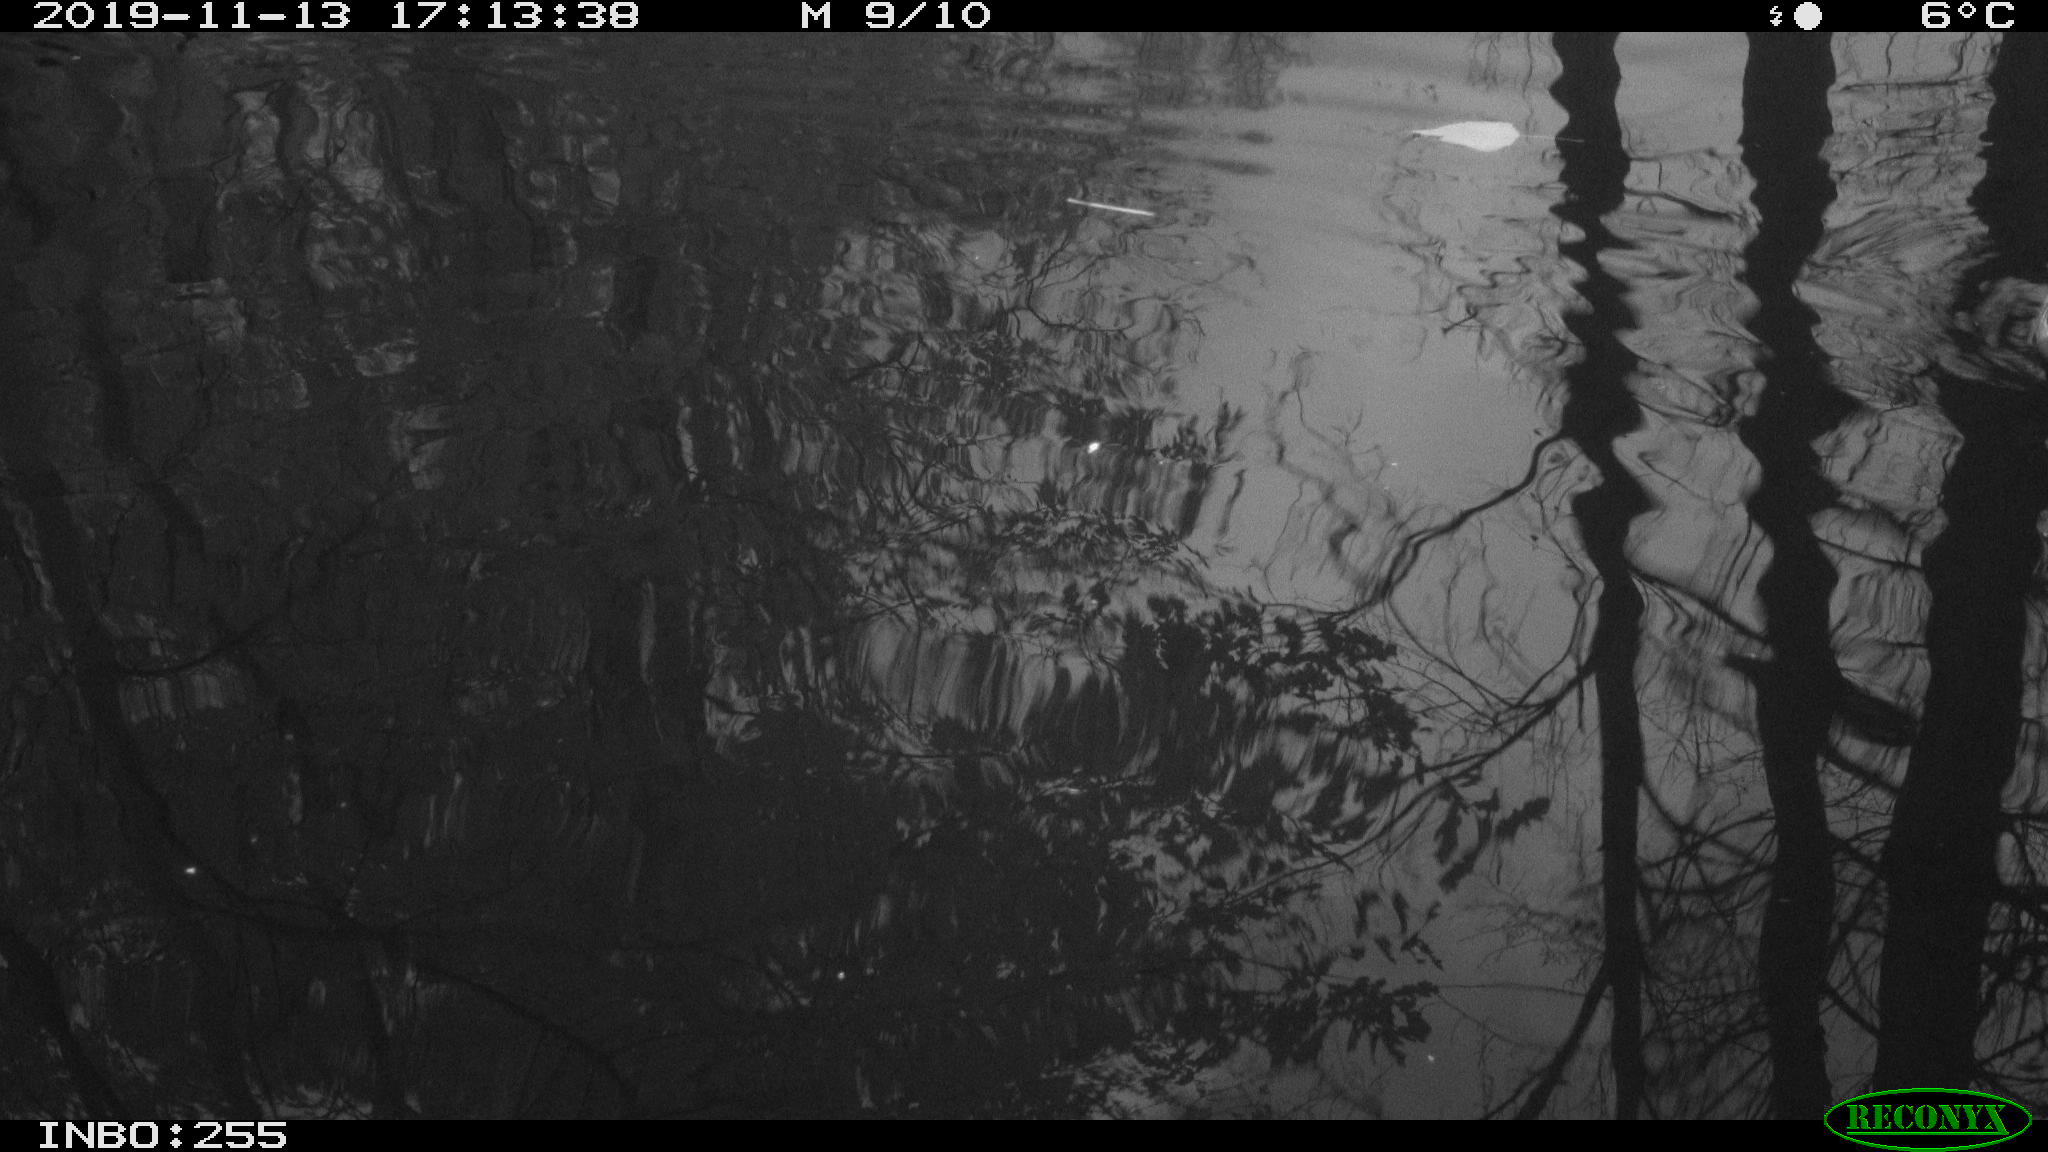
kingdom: Animalia
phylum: Chordata
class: Mammalia
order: Rodentia
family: Muridae
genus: Rattus
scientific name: Rattus norvegicus
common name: Brown rat
